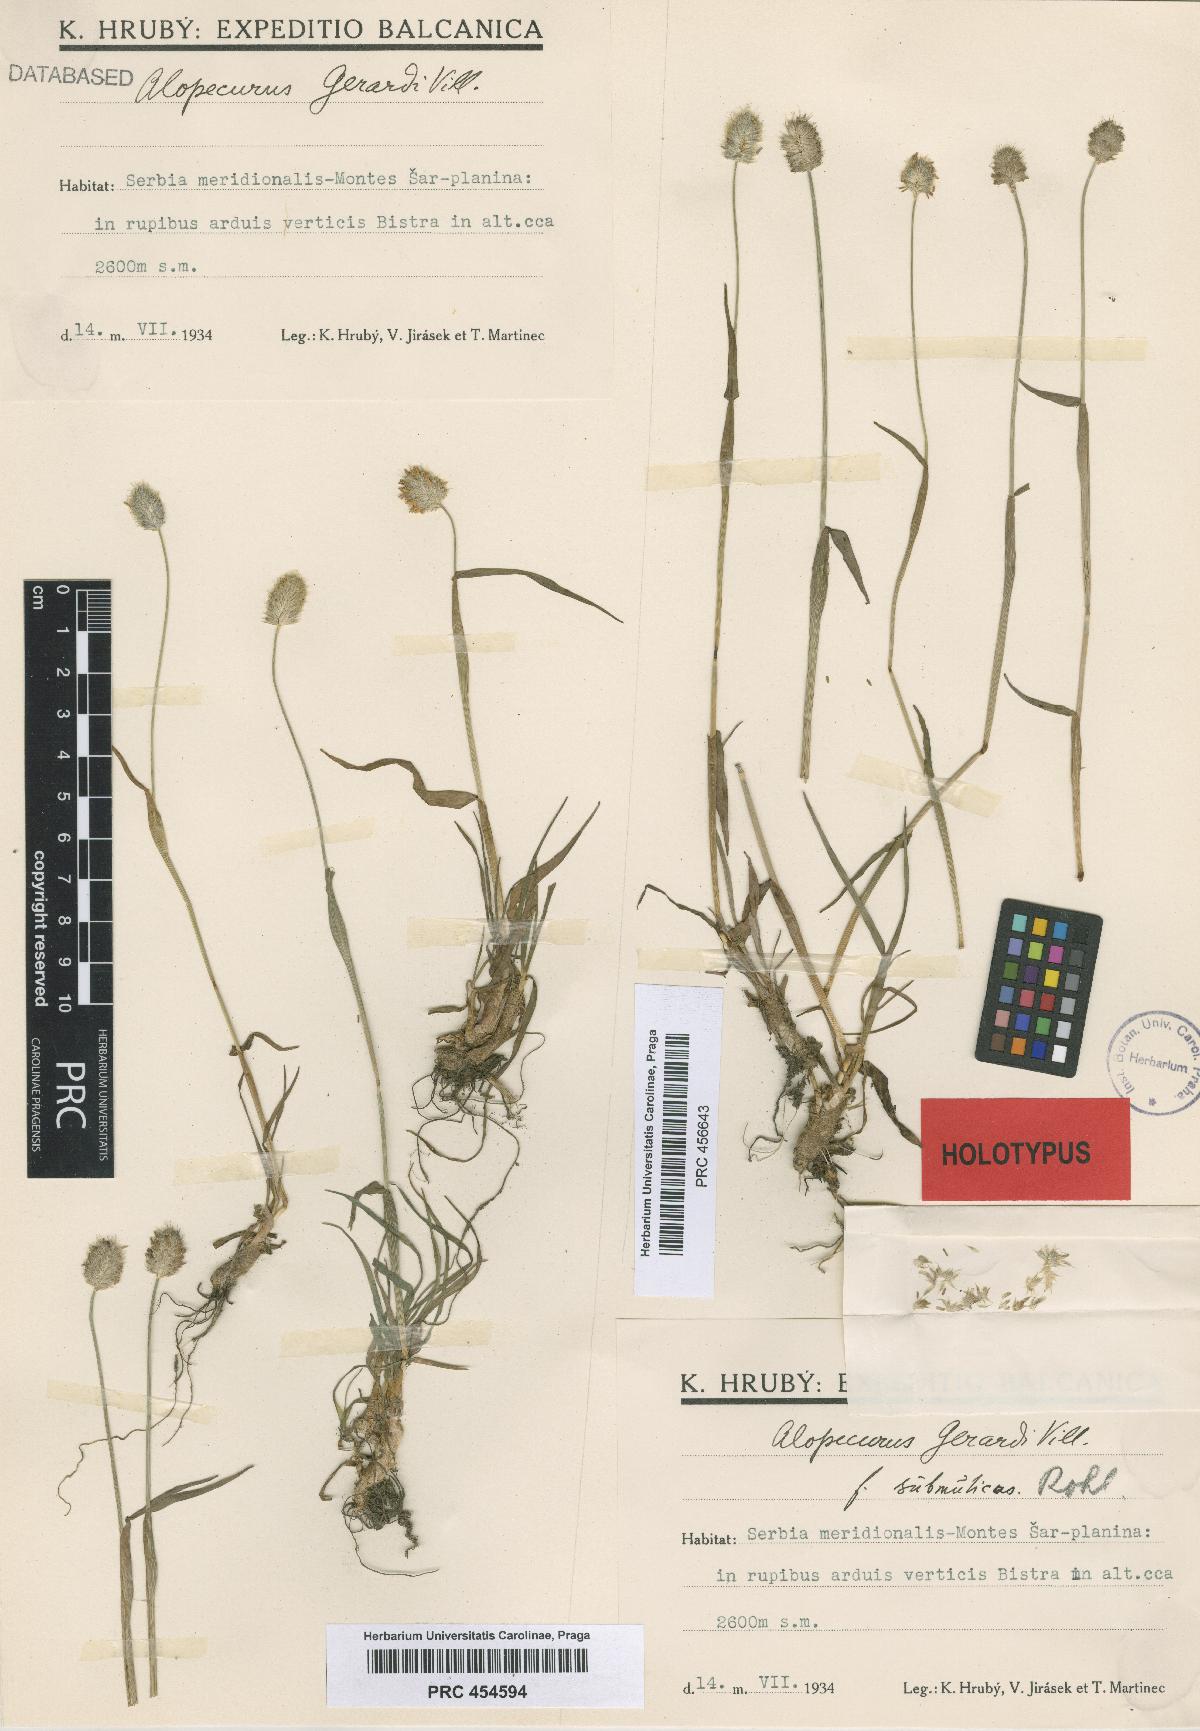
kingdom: Plantae
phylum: Tracheophyta
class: Liliopsida
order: Poales
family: Poaceae
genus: Alopecurus
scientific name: Alopecurus gerardii
